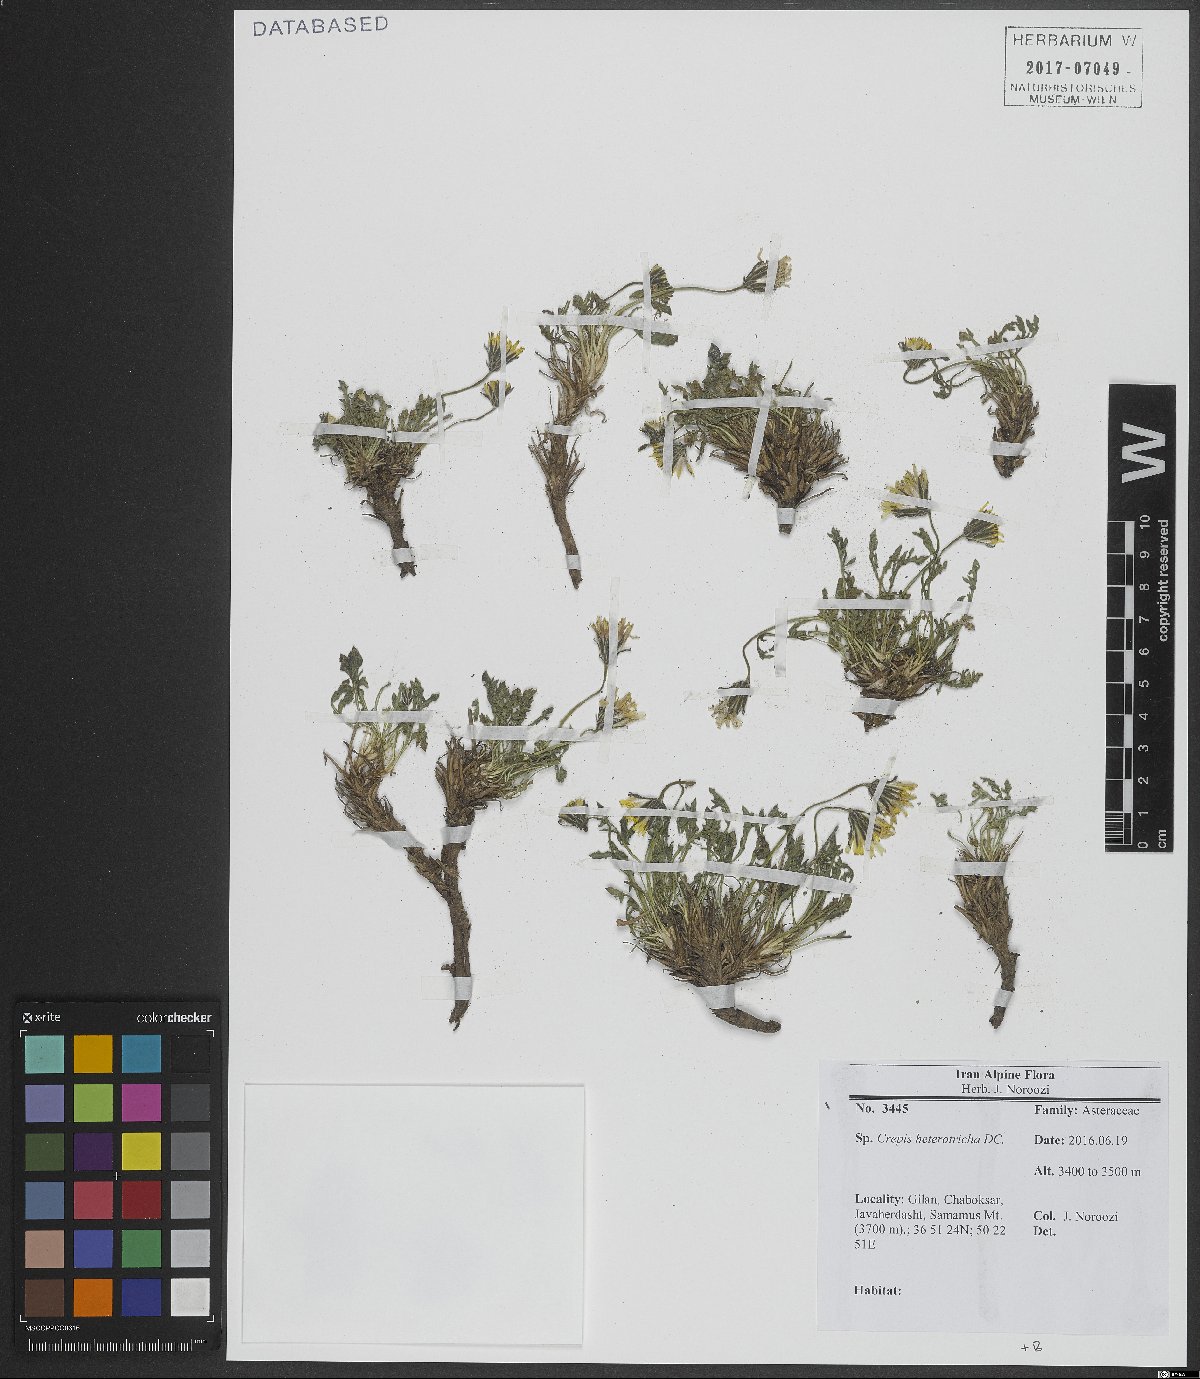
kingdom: Plantae
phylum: Tracheophyta
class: Magnoliopsida
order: Asterales
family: Asteraceae
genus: Crepis
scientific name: Crepis heterotricha
